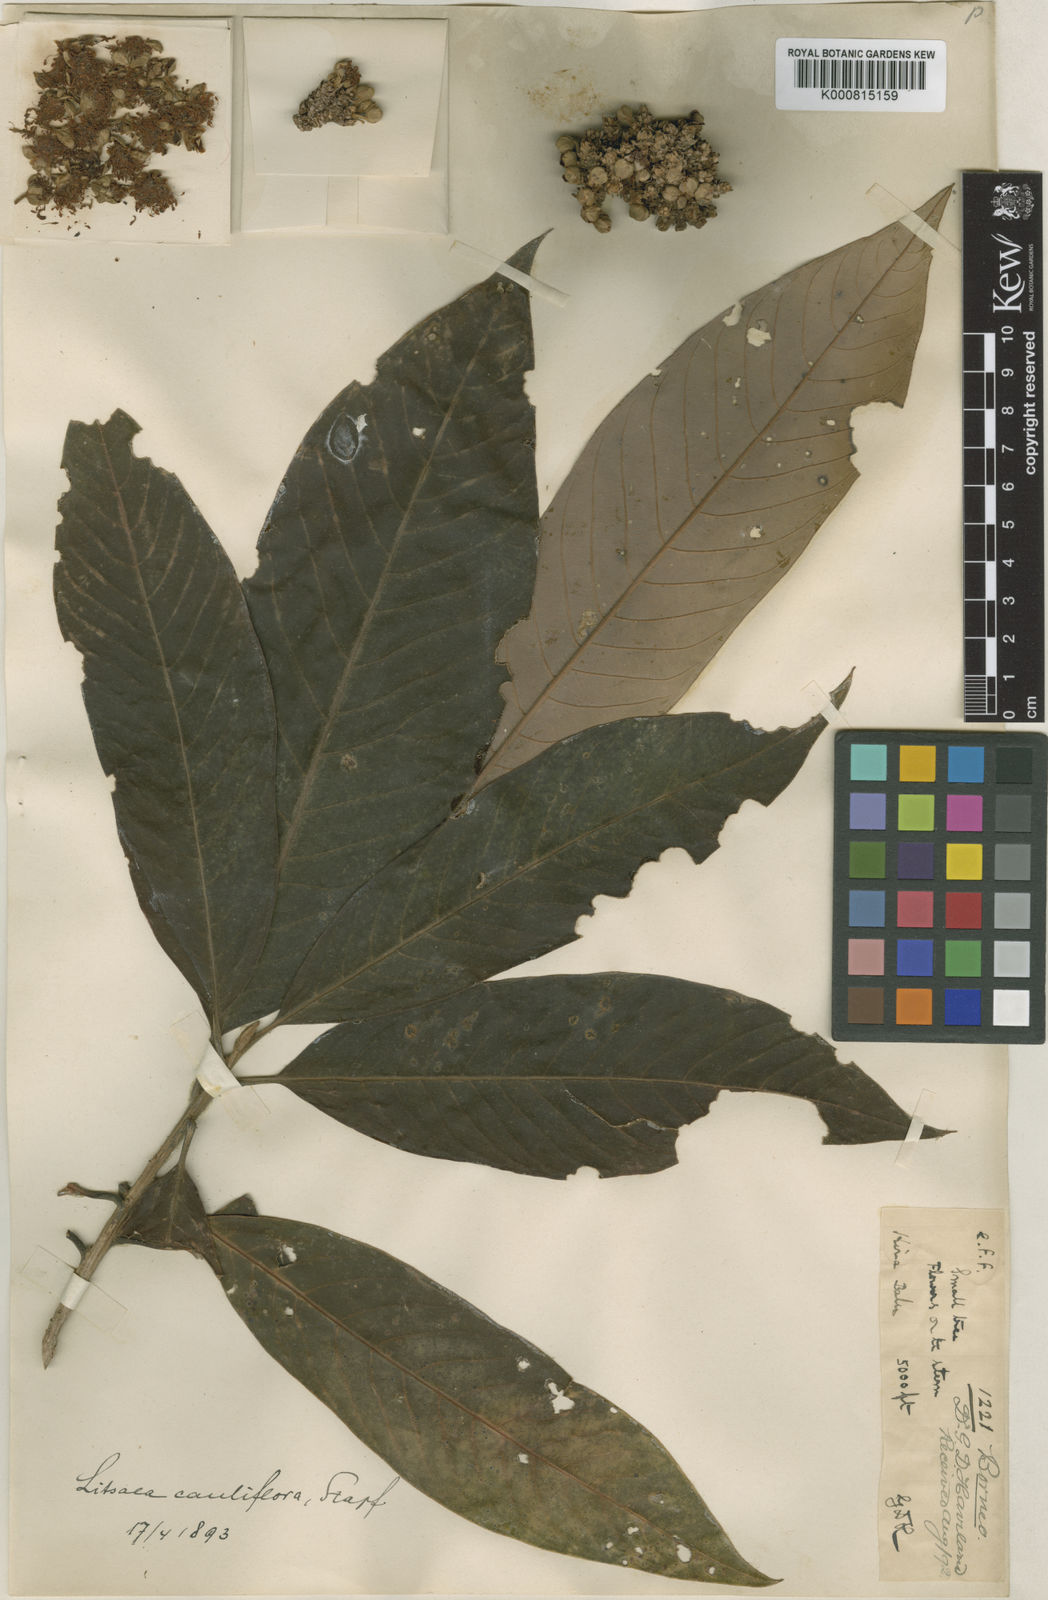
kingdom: Plantae
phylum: Tracheophyta
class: Magnoliopsida
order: Laurales
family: Lauraceae
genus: Litsea
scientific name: Litsea cauliflora
